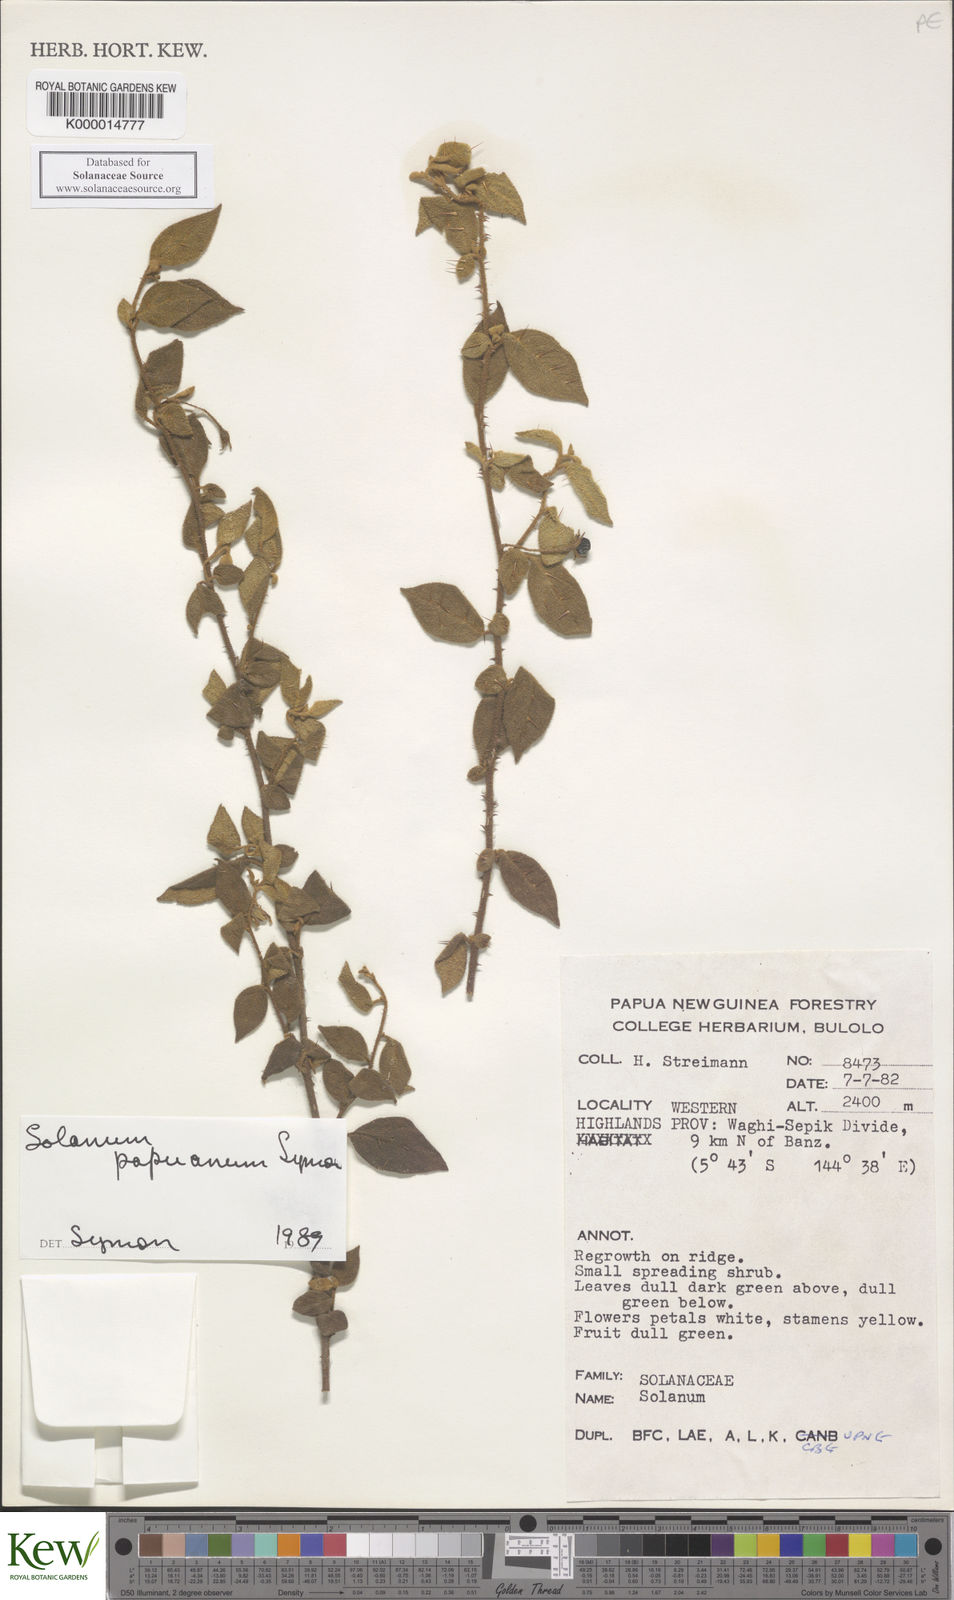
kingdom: Plantae
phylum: Tracheophyta
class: Magnoliopsida
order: Solanales
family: Solanaceae
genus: Solanum
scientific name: Solanum papuanum
